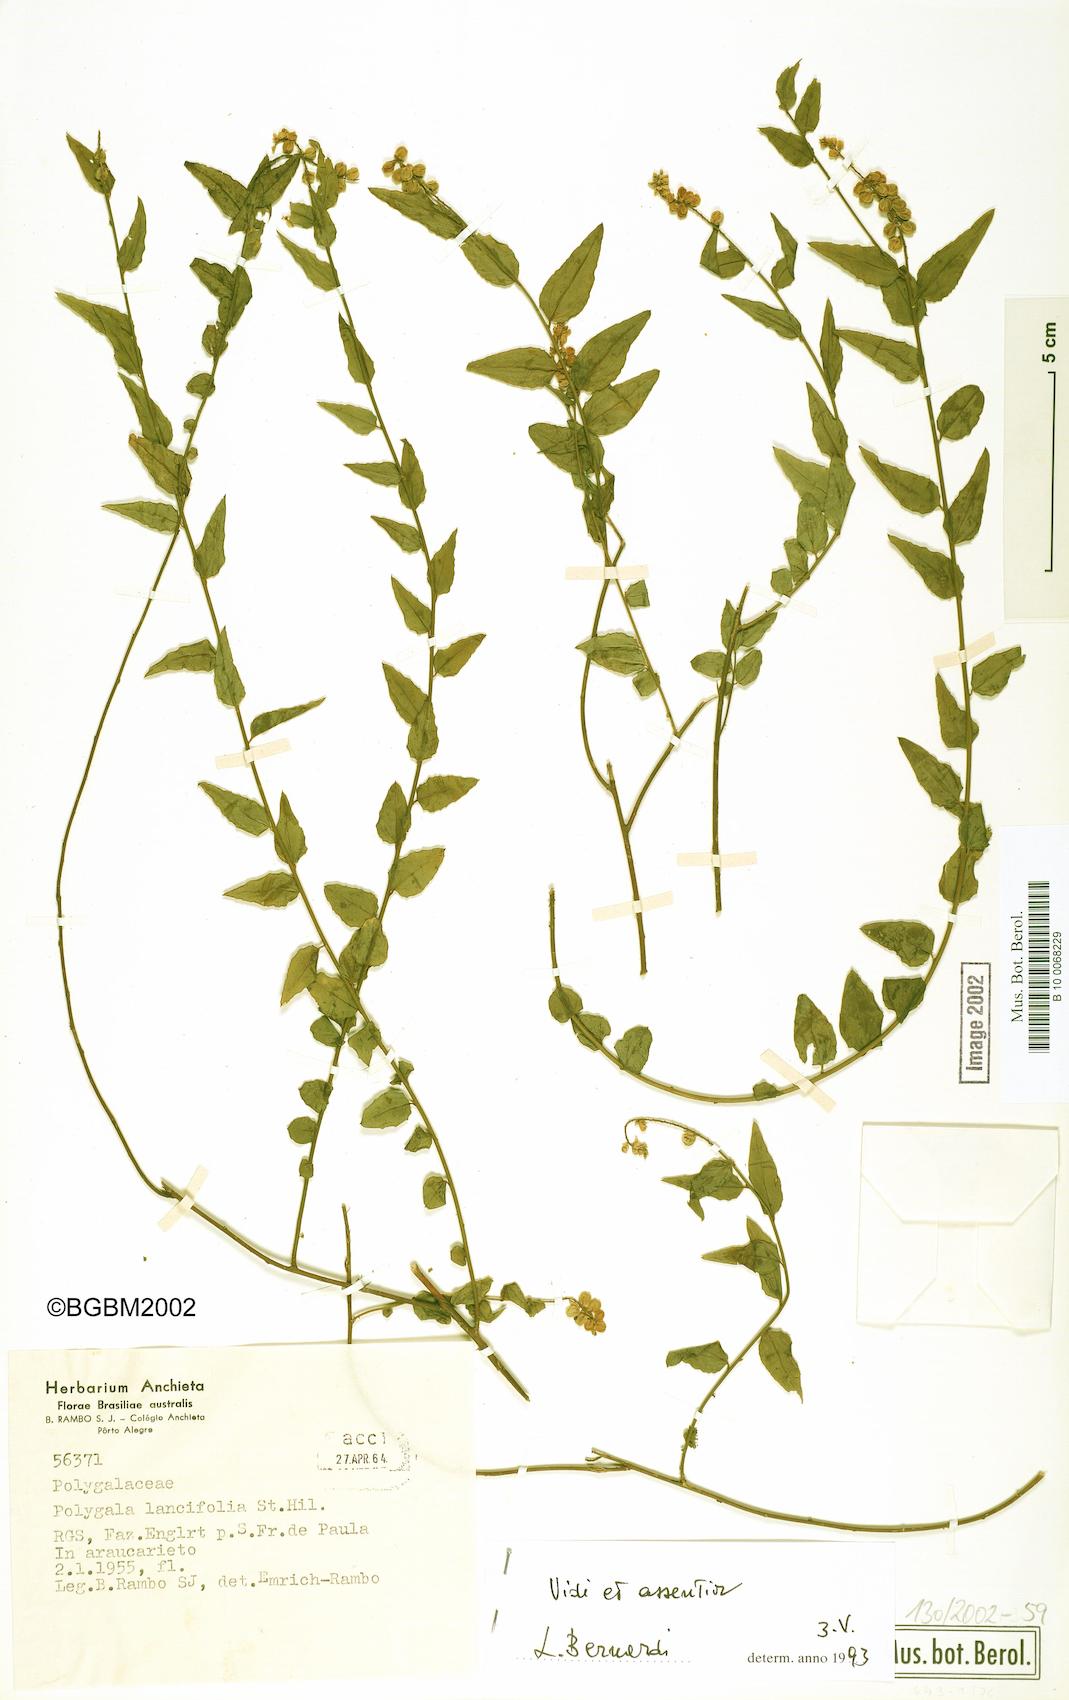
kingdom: Plantae
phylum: Tracheophyta
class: Magnoliopsida
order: Fabales
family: Polygalaceae
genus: Polygala
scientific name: Polygala lancifolia
